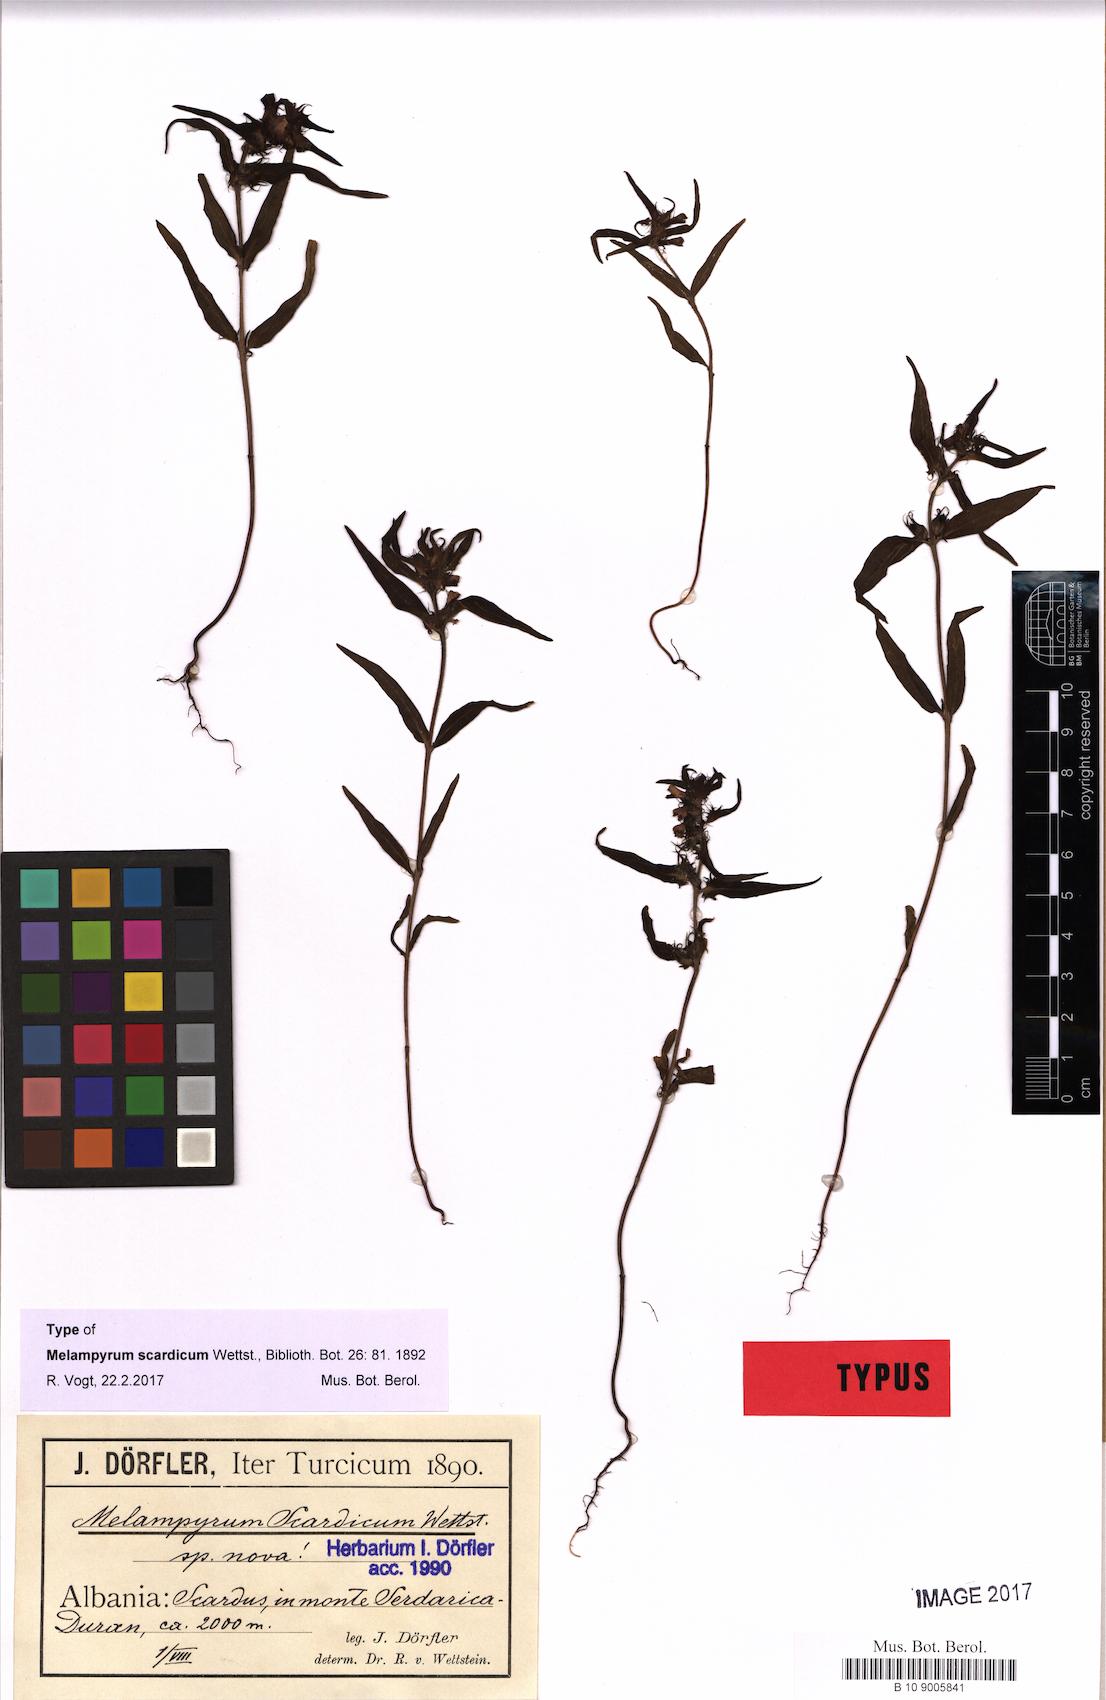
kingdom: Plantae
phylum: Tracheophyta
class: Magnoliopsida
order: Lamiales
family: Orobanchaceae
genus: Melampyrum
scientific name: Melampyrum scardicum
